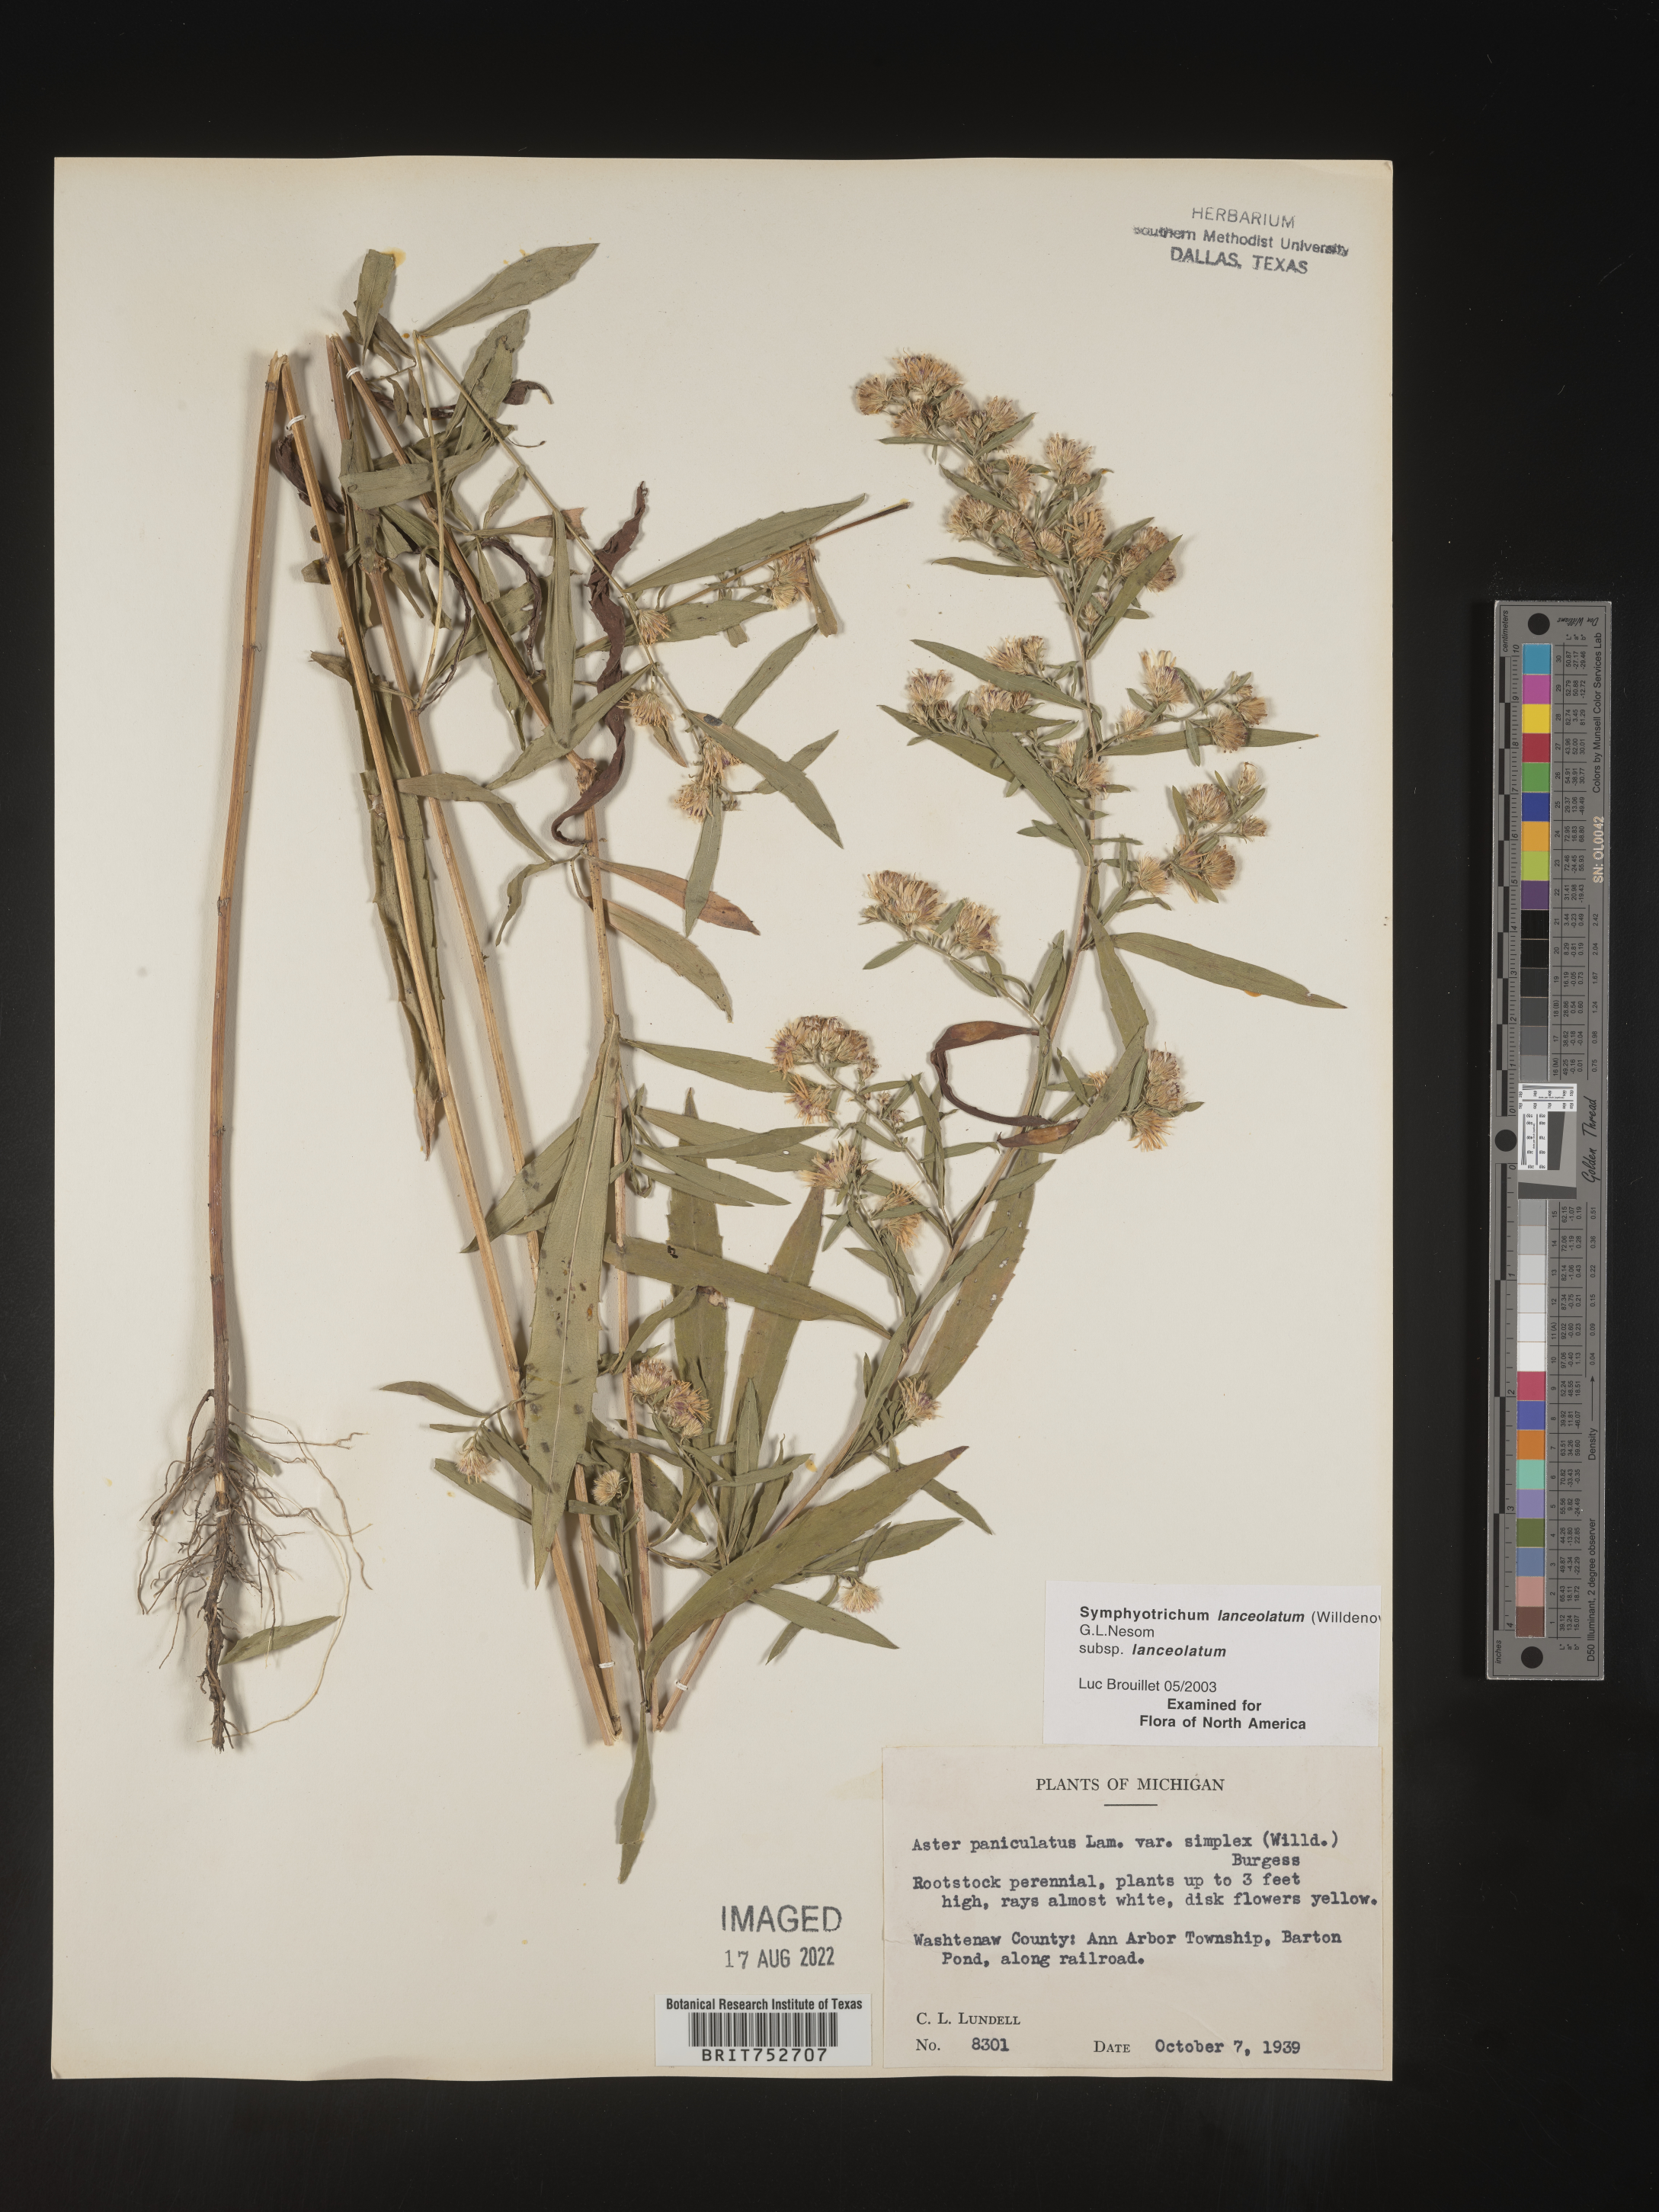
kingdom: Plantae
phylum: Tracheophyta
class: Magnoliopsida
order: Asterales
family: Asteraceae
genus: Symphyotrichum
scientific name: Symphyotrichum lanceolatum
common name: Panicled aster
